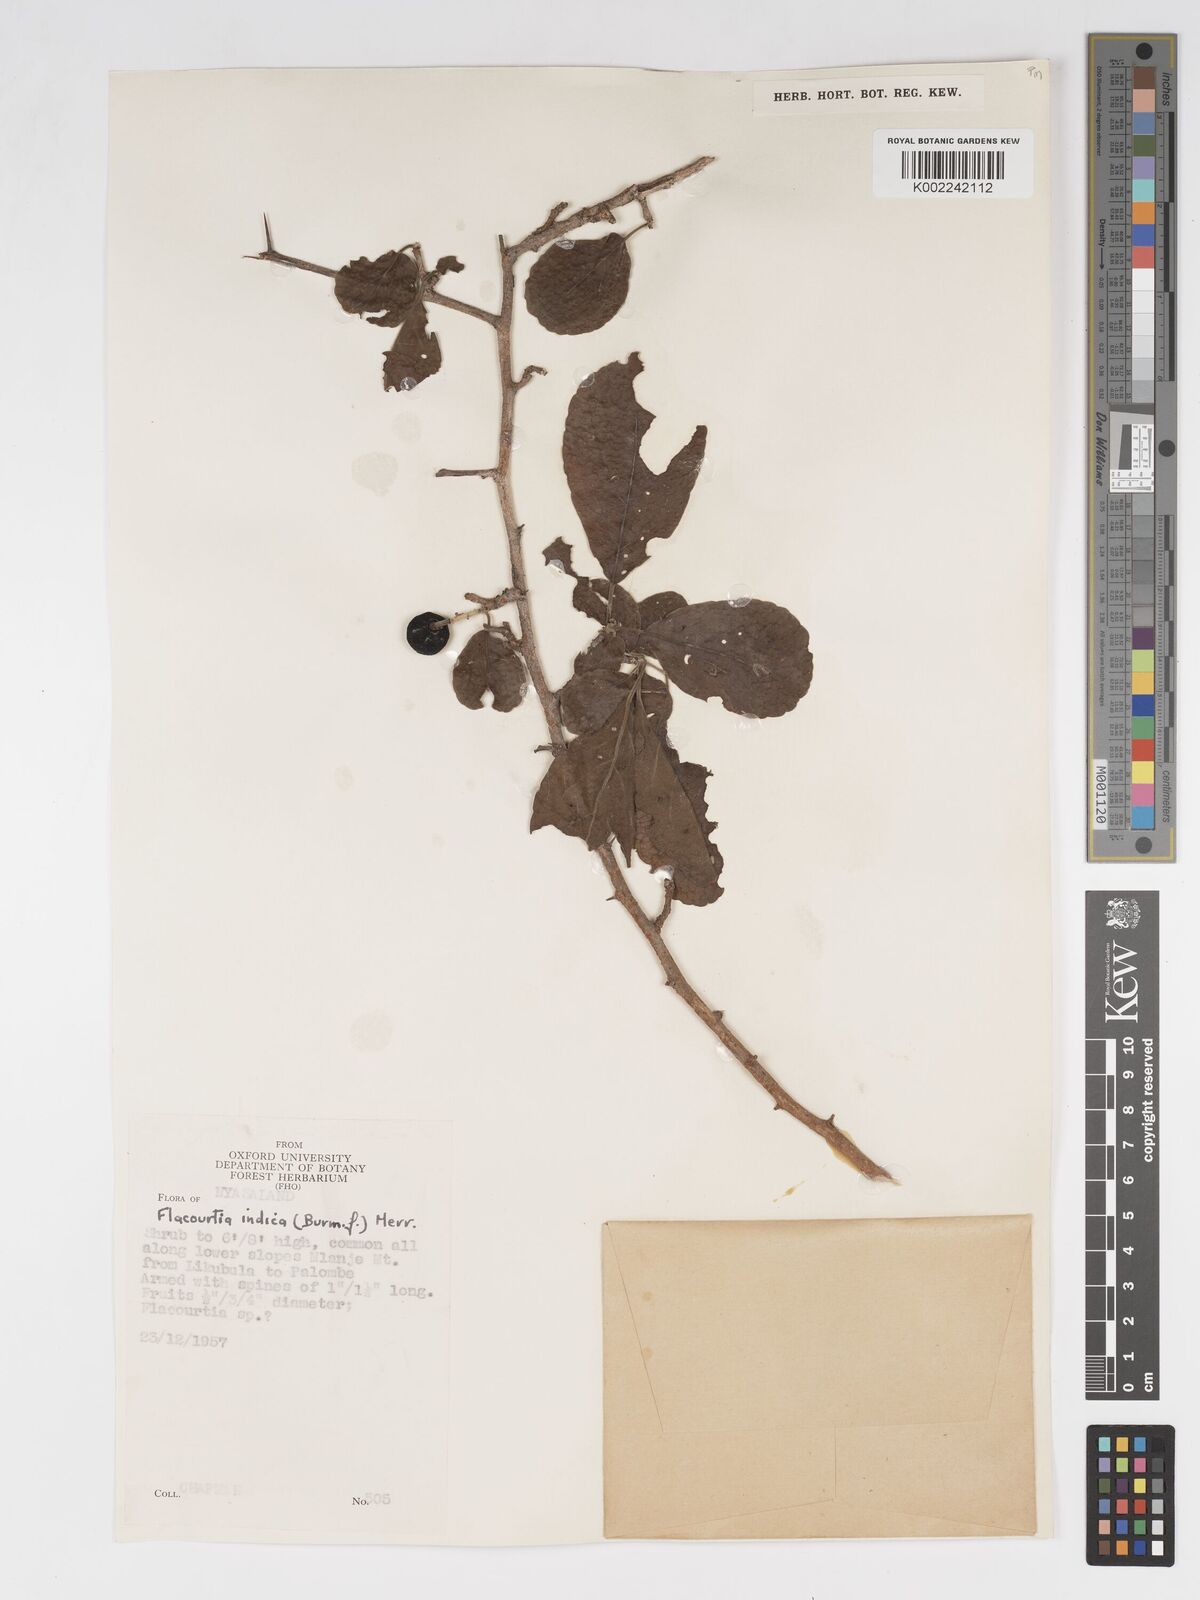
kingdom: Plantae
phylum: Tracheophyta
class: Magnoliopsida
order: Malpighiales
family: Salicaceae
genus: Flacourtia
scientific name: Flacourtia indica
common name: Governor's plum
